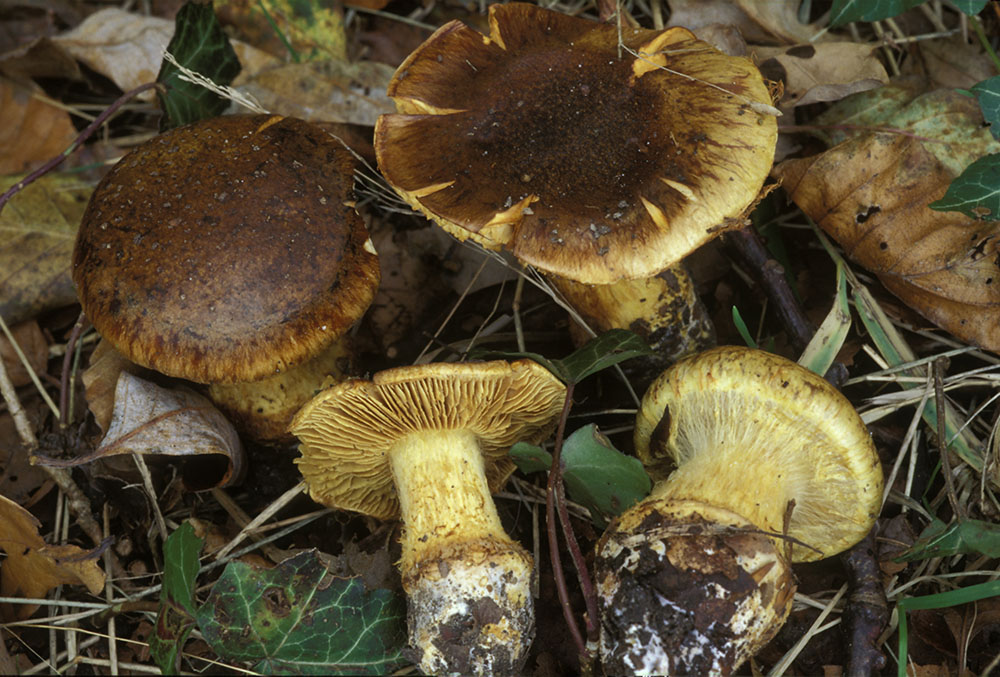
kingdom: Fungi
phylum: Basidiomycota
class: Agaricomycetes
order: Agaricales
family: Cortinariaceae
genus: Calonarius
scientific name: Calonarius xanthochlorus
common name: gulgrøn slørhat
